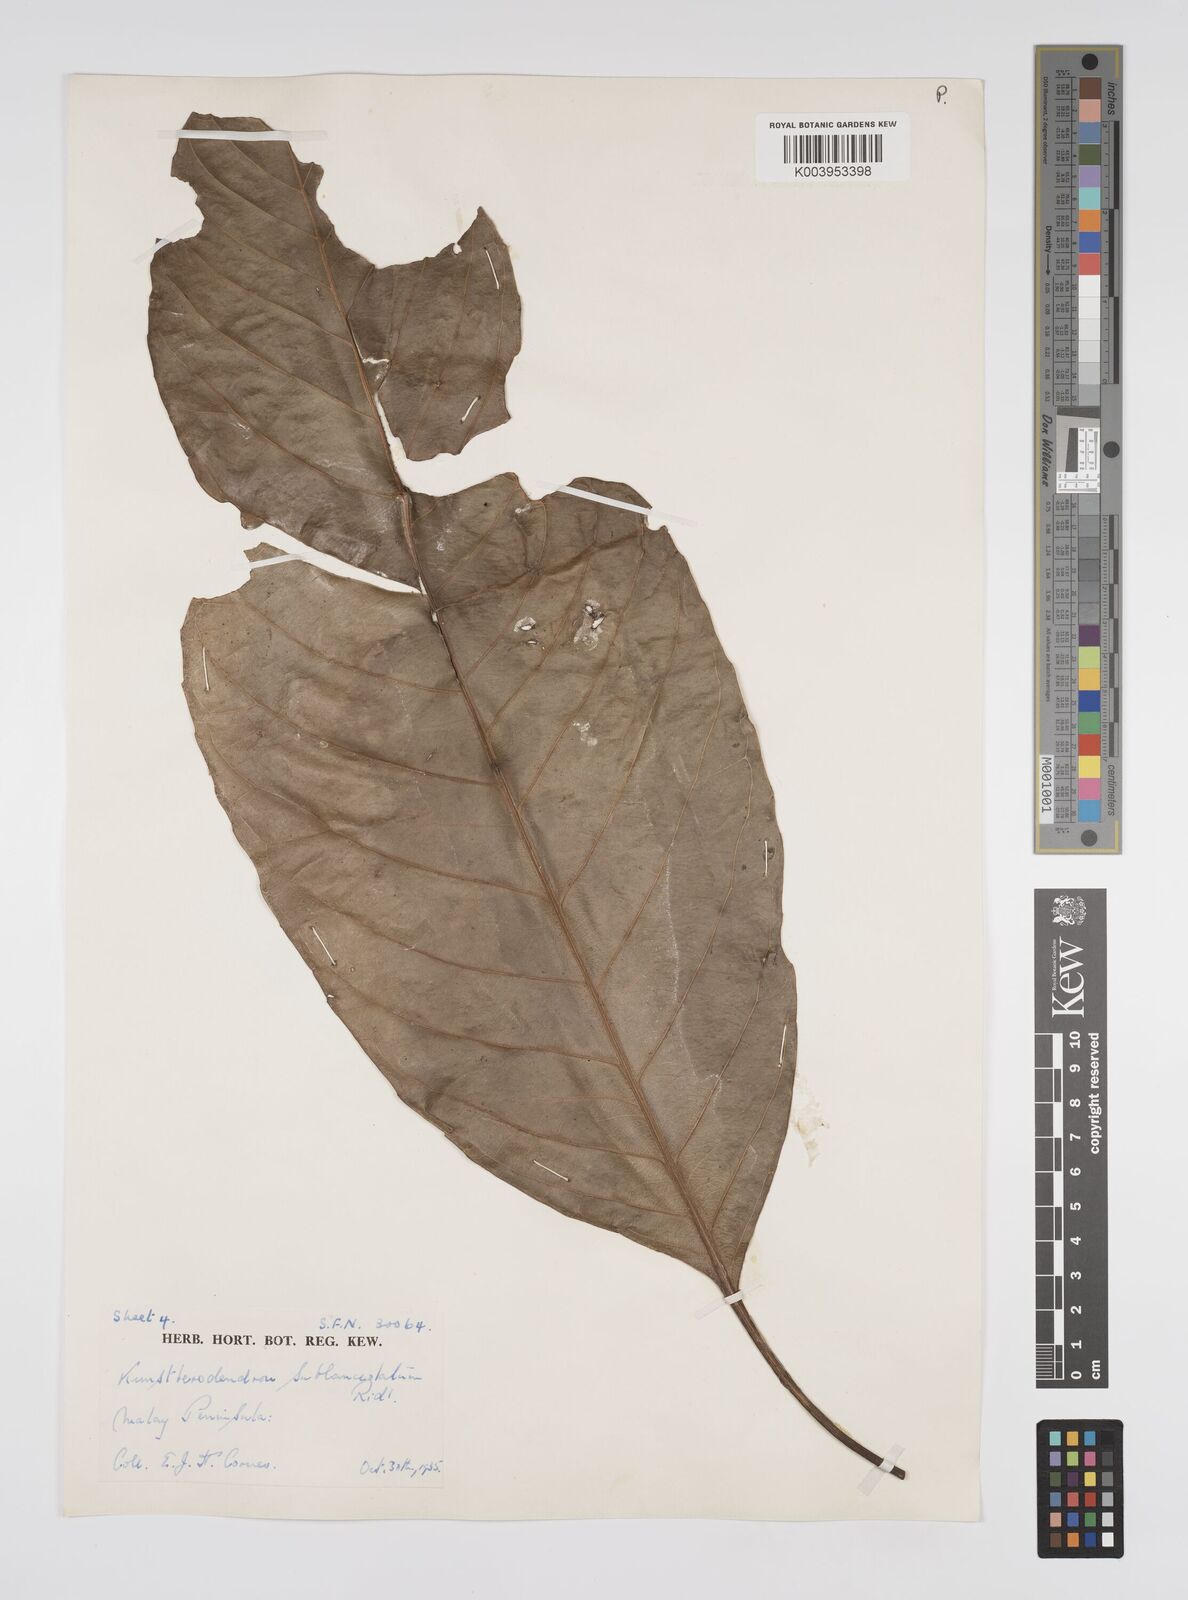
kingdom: Plantae
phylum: Tracheophyta
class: Magnoliopsida
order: Malpighiales
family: Euphorbiaceae
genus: Chondrostylis
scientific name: Chondrostylis kunstleri
